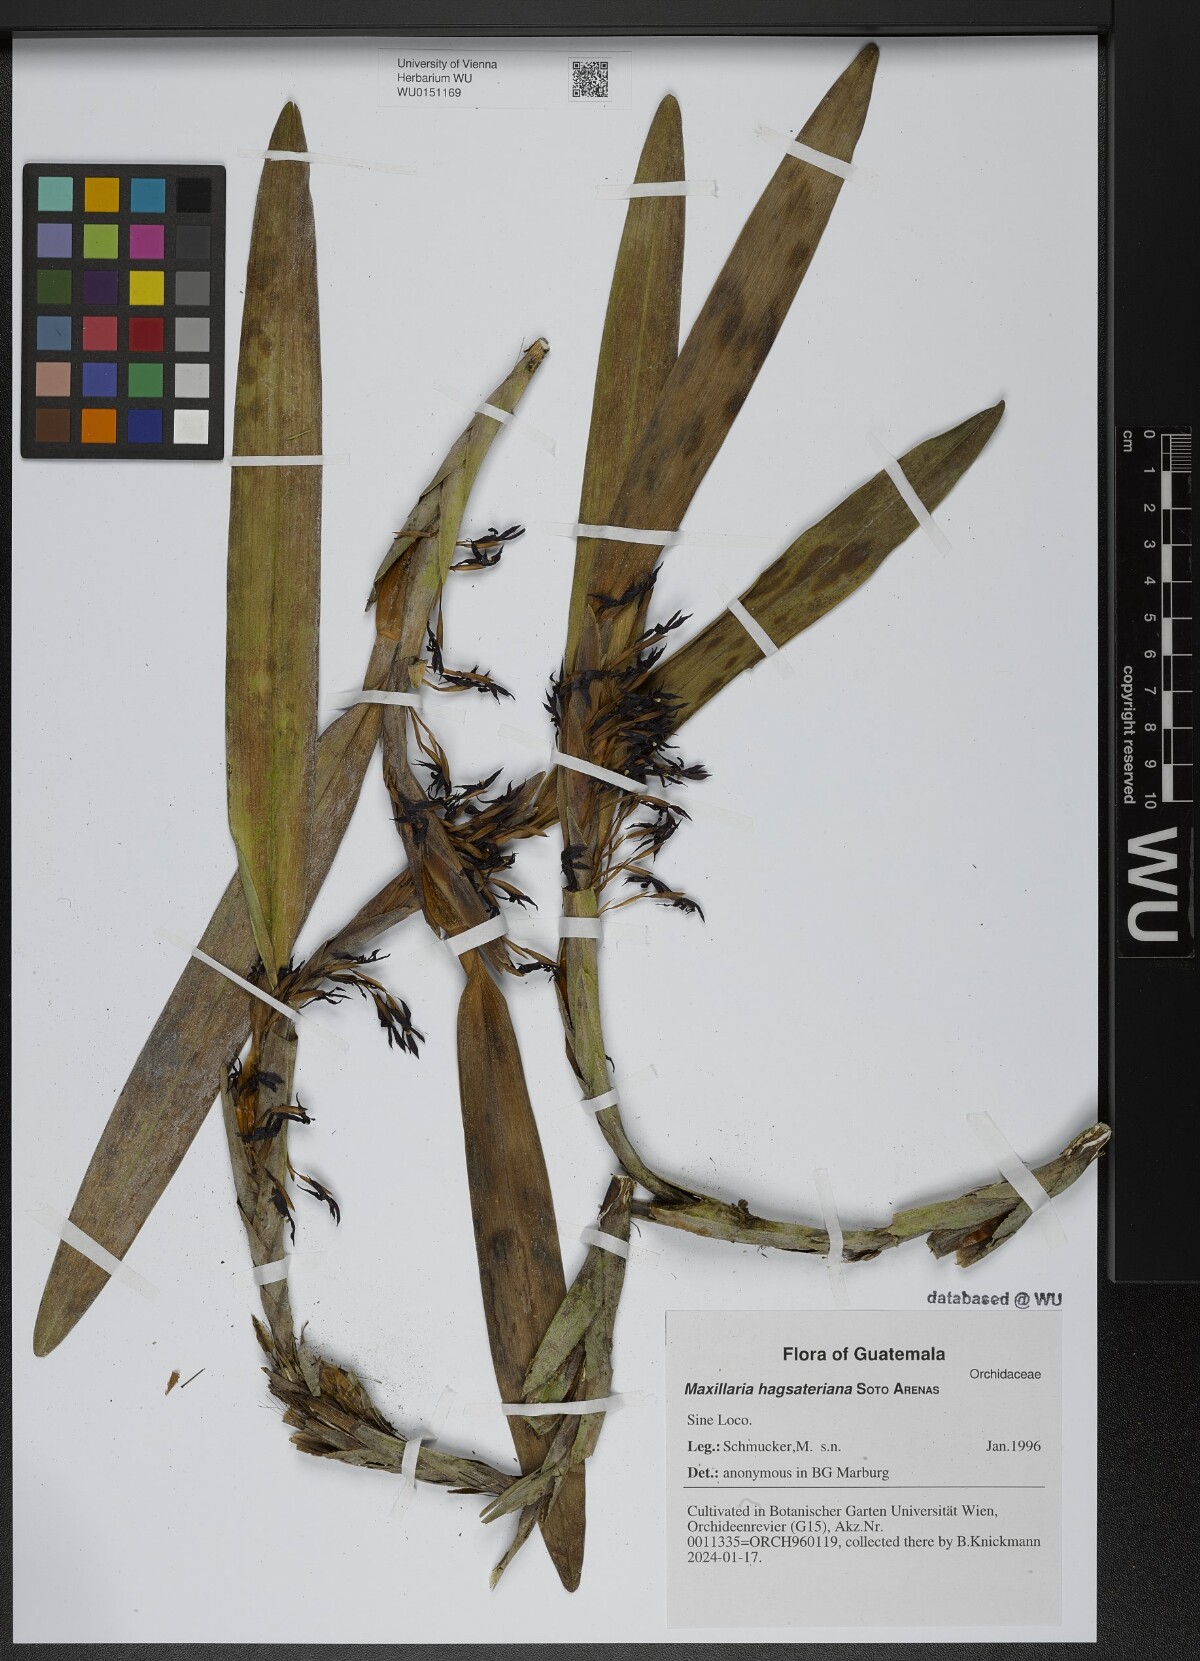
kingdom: Plantae
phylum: Tracheophyta
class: Liliopsida
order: Asparagales
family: Orchidaceae
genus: Maxillaria
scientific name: Maxillaria hagsateriana
